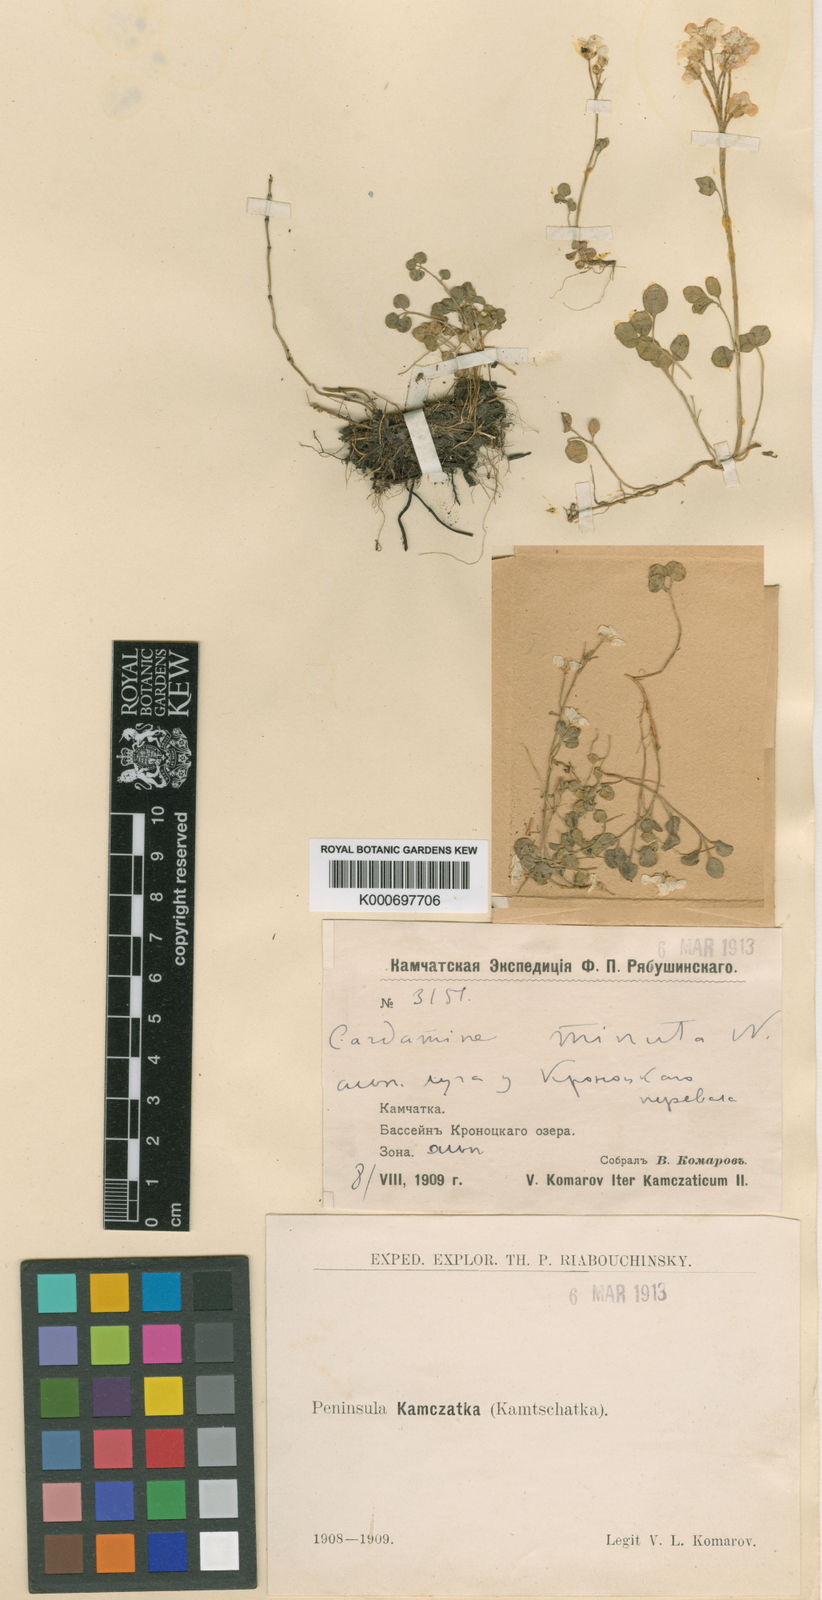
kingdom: Plantae
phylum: Tracheophyta
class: Magnoliopsida
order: Brassicales
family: Brassicaceae
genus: Cardamine
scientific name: Cardamine microphylla
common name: Little-leaved bittercress
